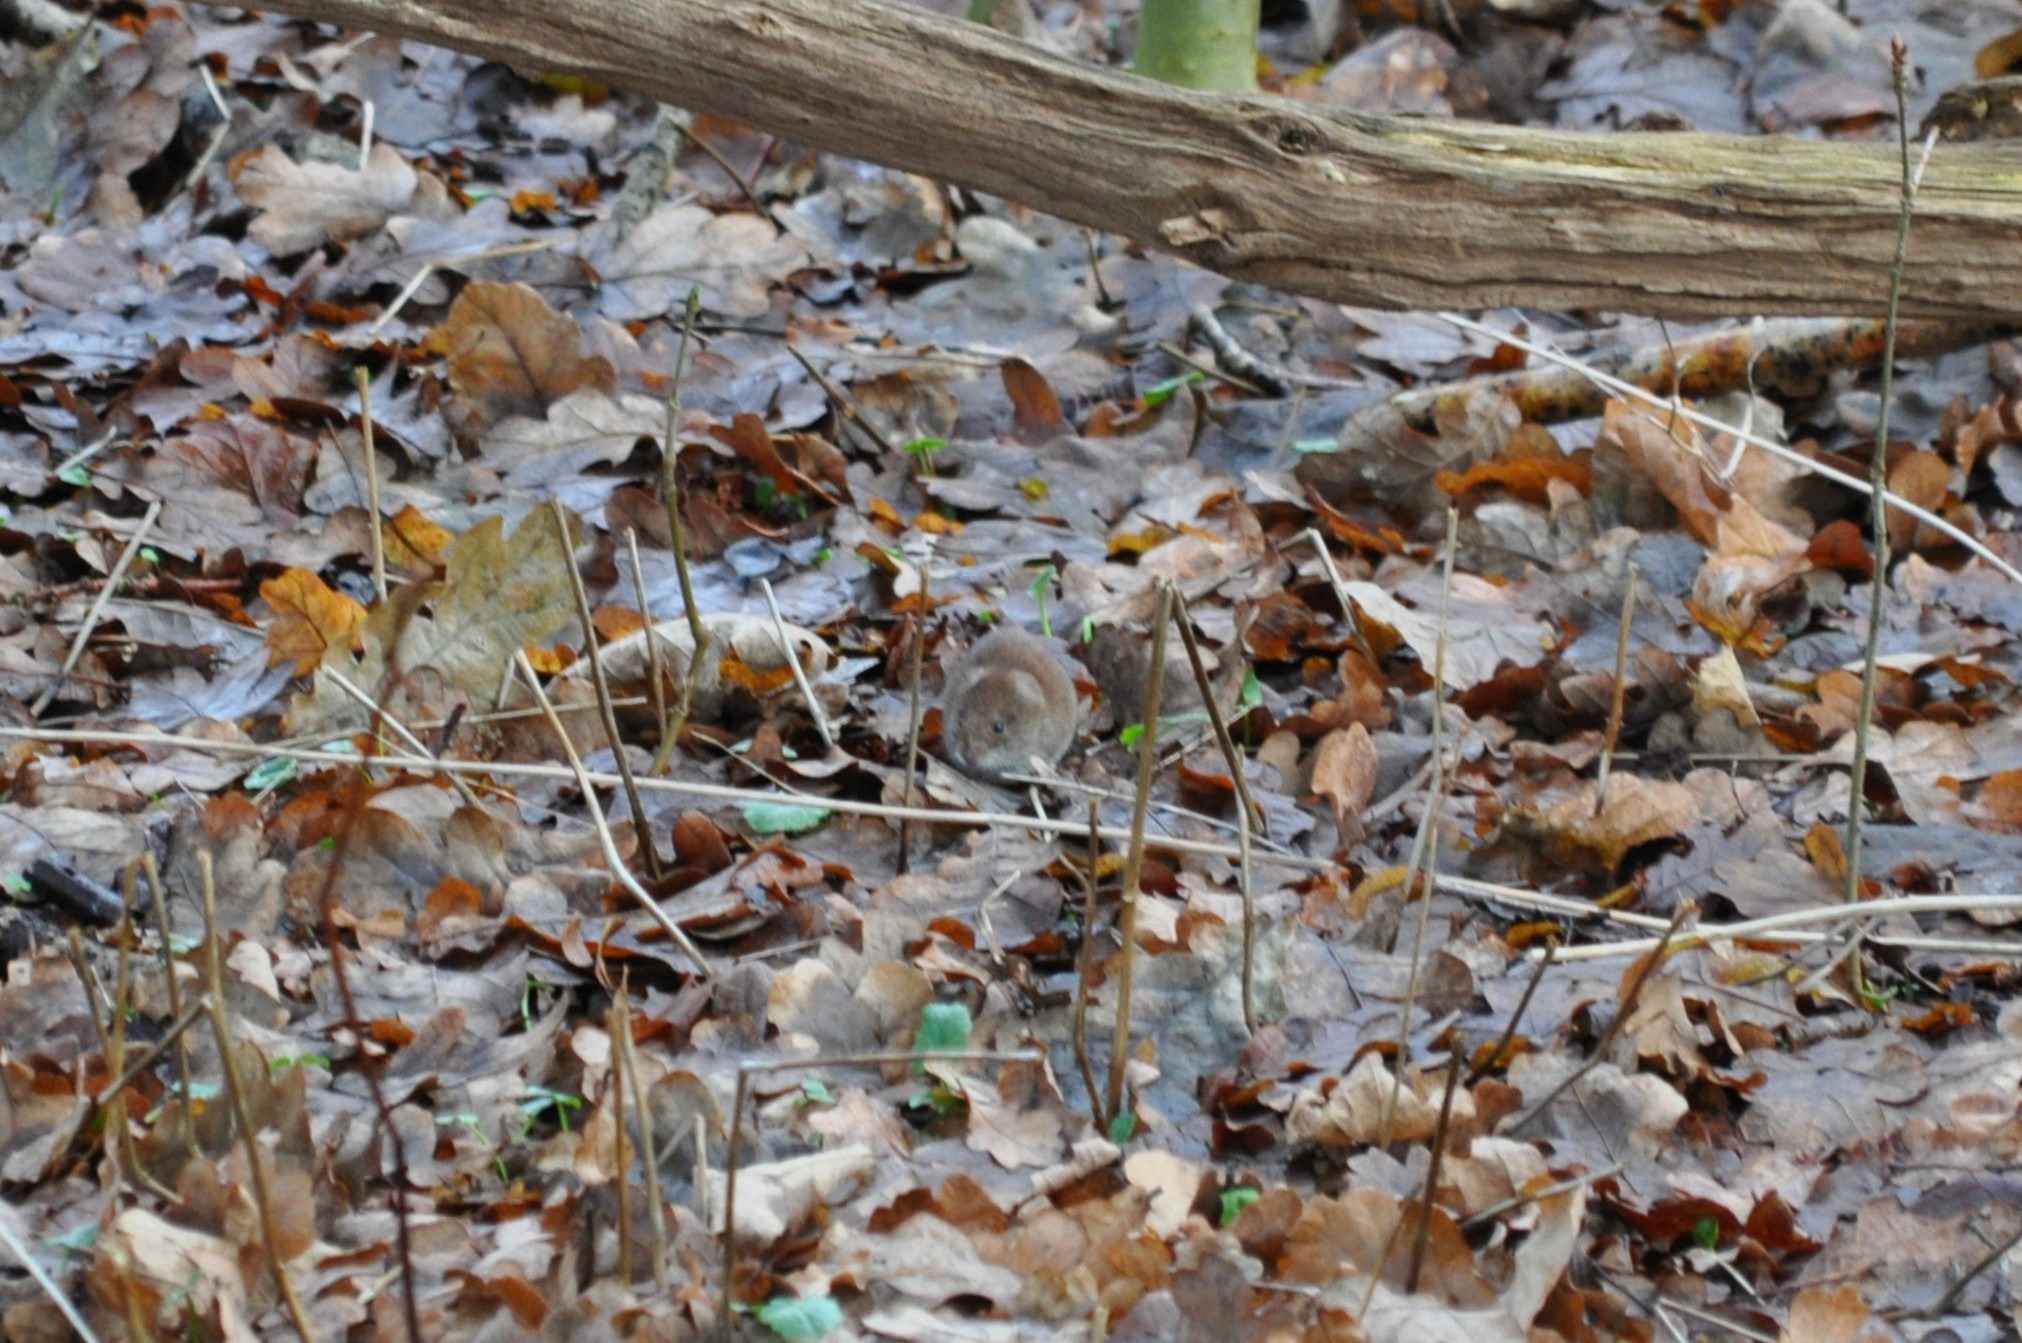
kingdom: Animalia
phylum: Chordata
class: Mammalia
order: Rodentia
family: Cricetidae
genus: Myodes
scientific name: Myodes glareolus
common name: Rødmus
